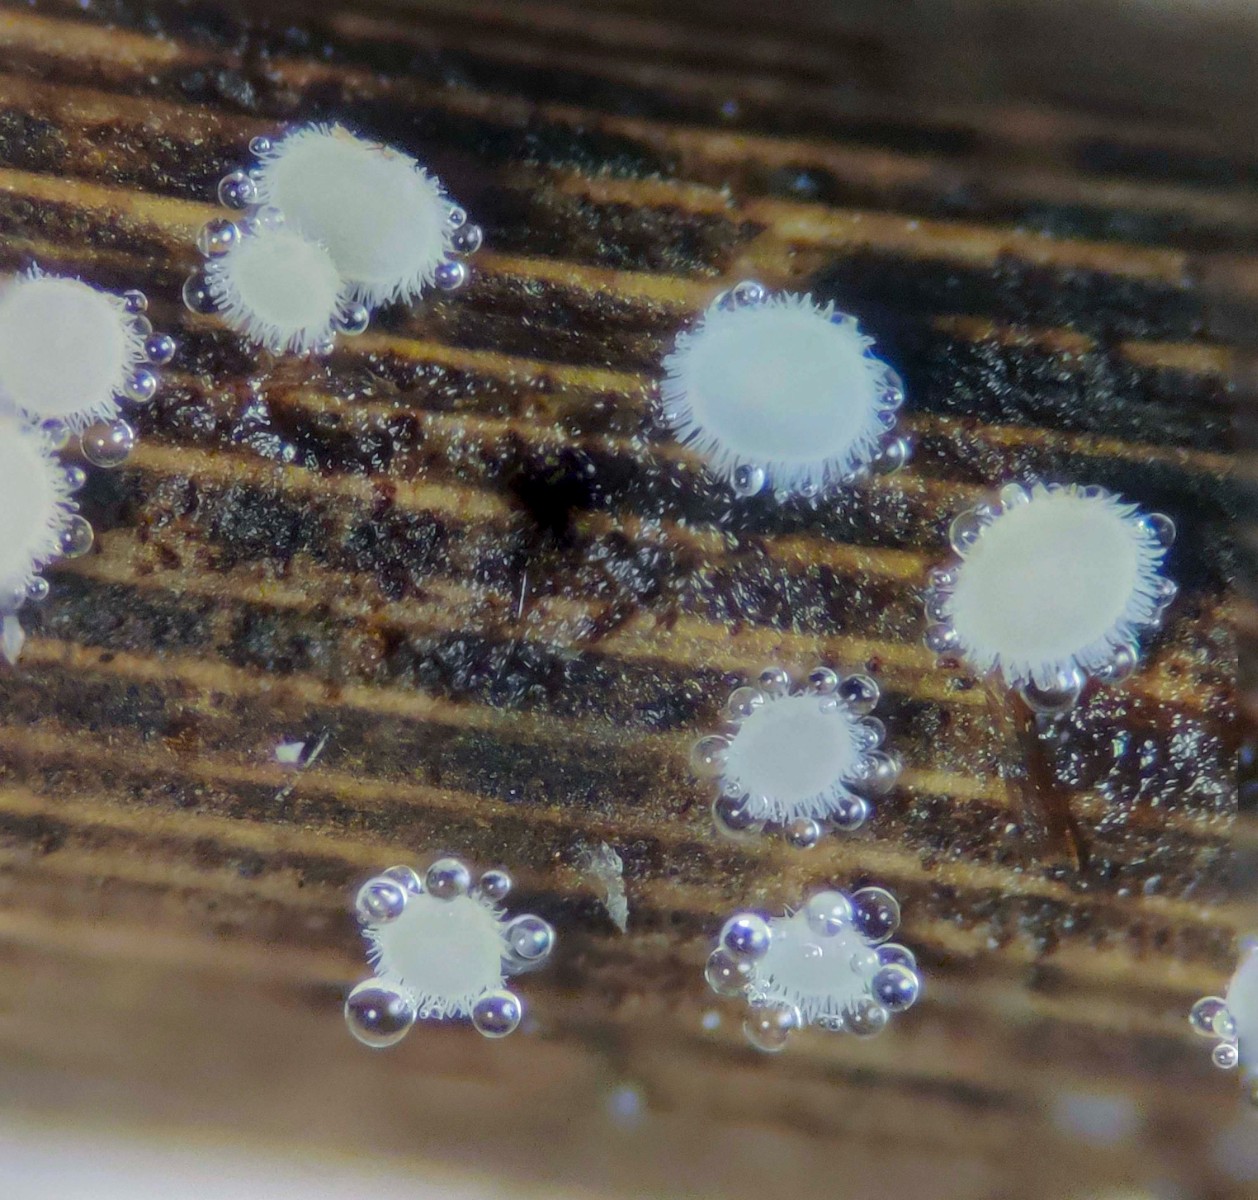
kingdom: Fungi
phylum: Ascomycota
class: Leotiomycetes
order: Helotiales
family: Lachnaceae
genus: Lachnum
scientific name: Lachnum apalum
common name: siv-frynseskive
